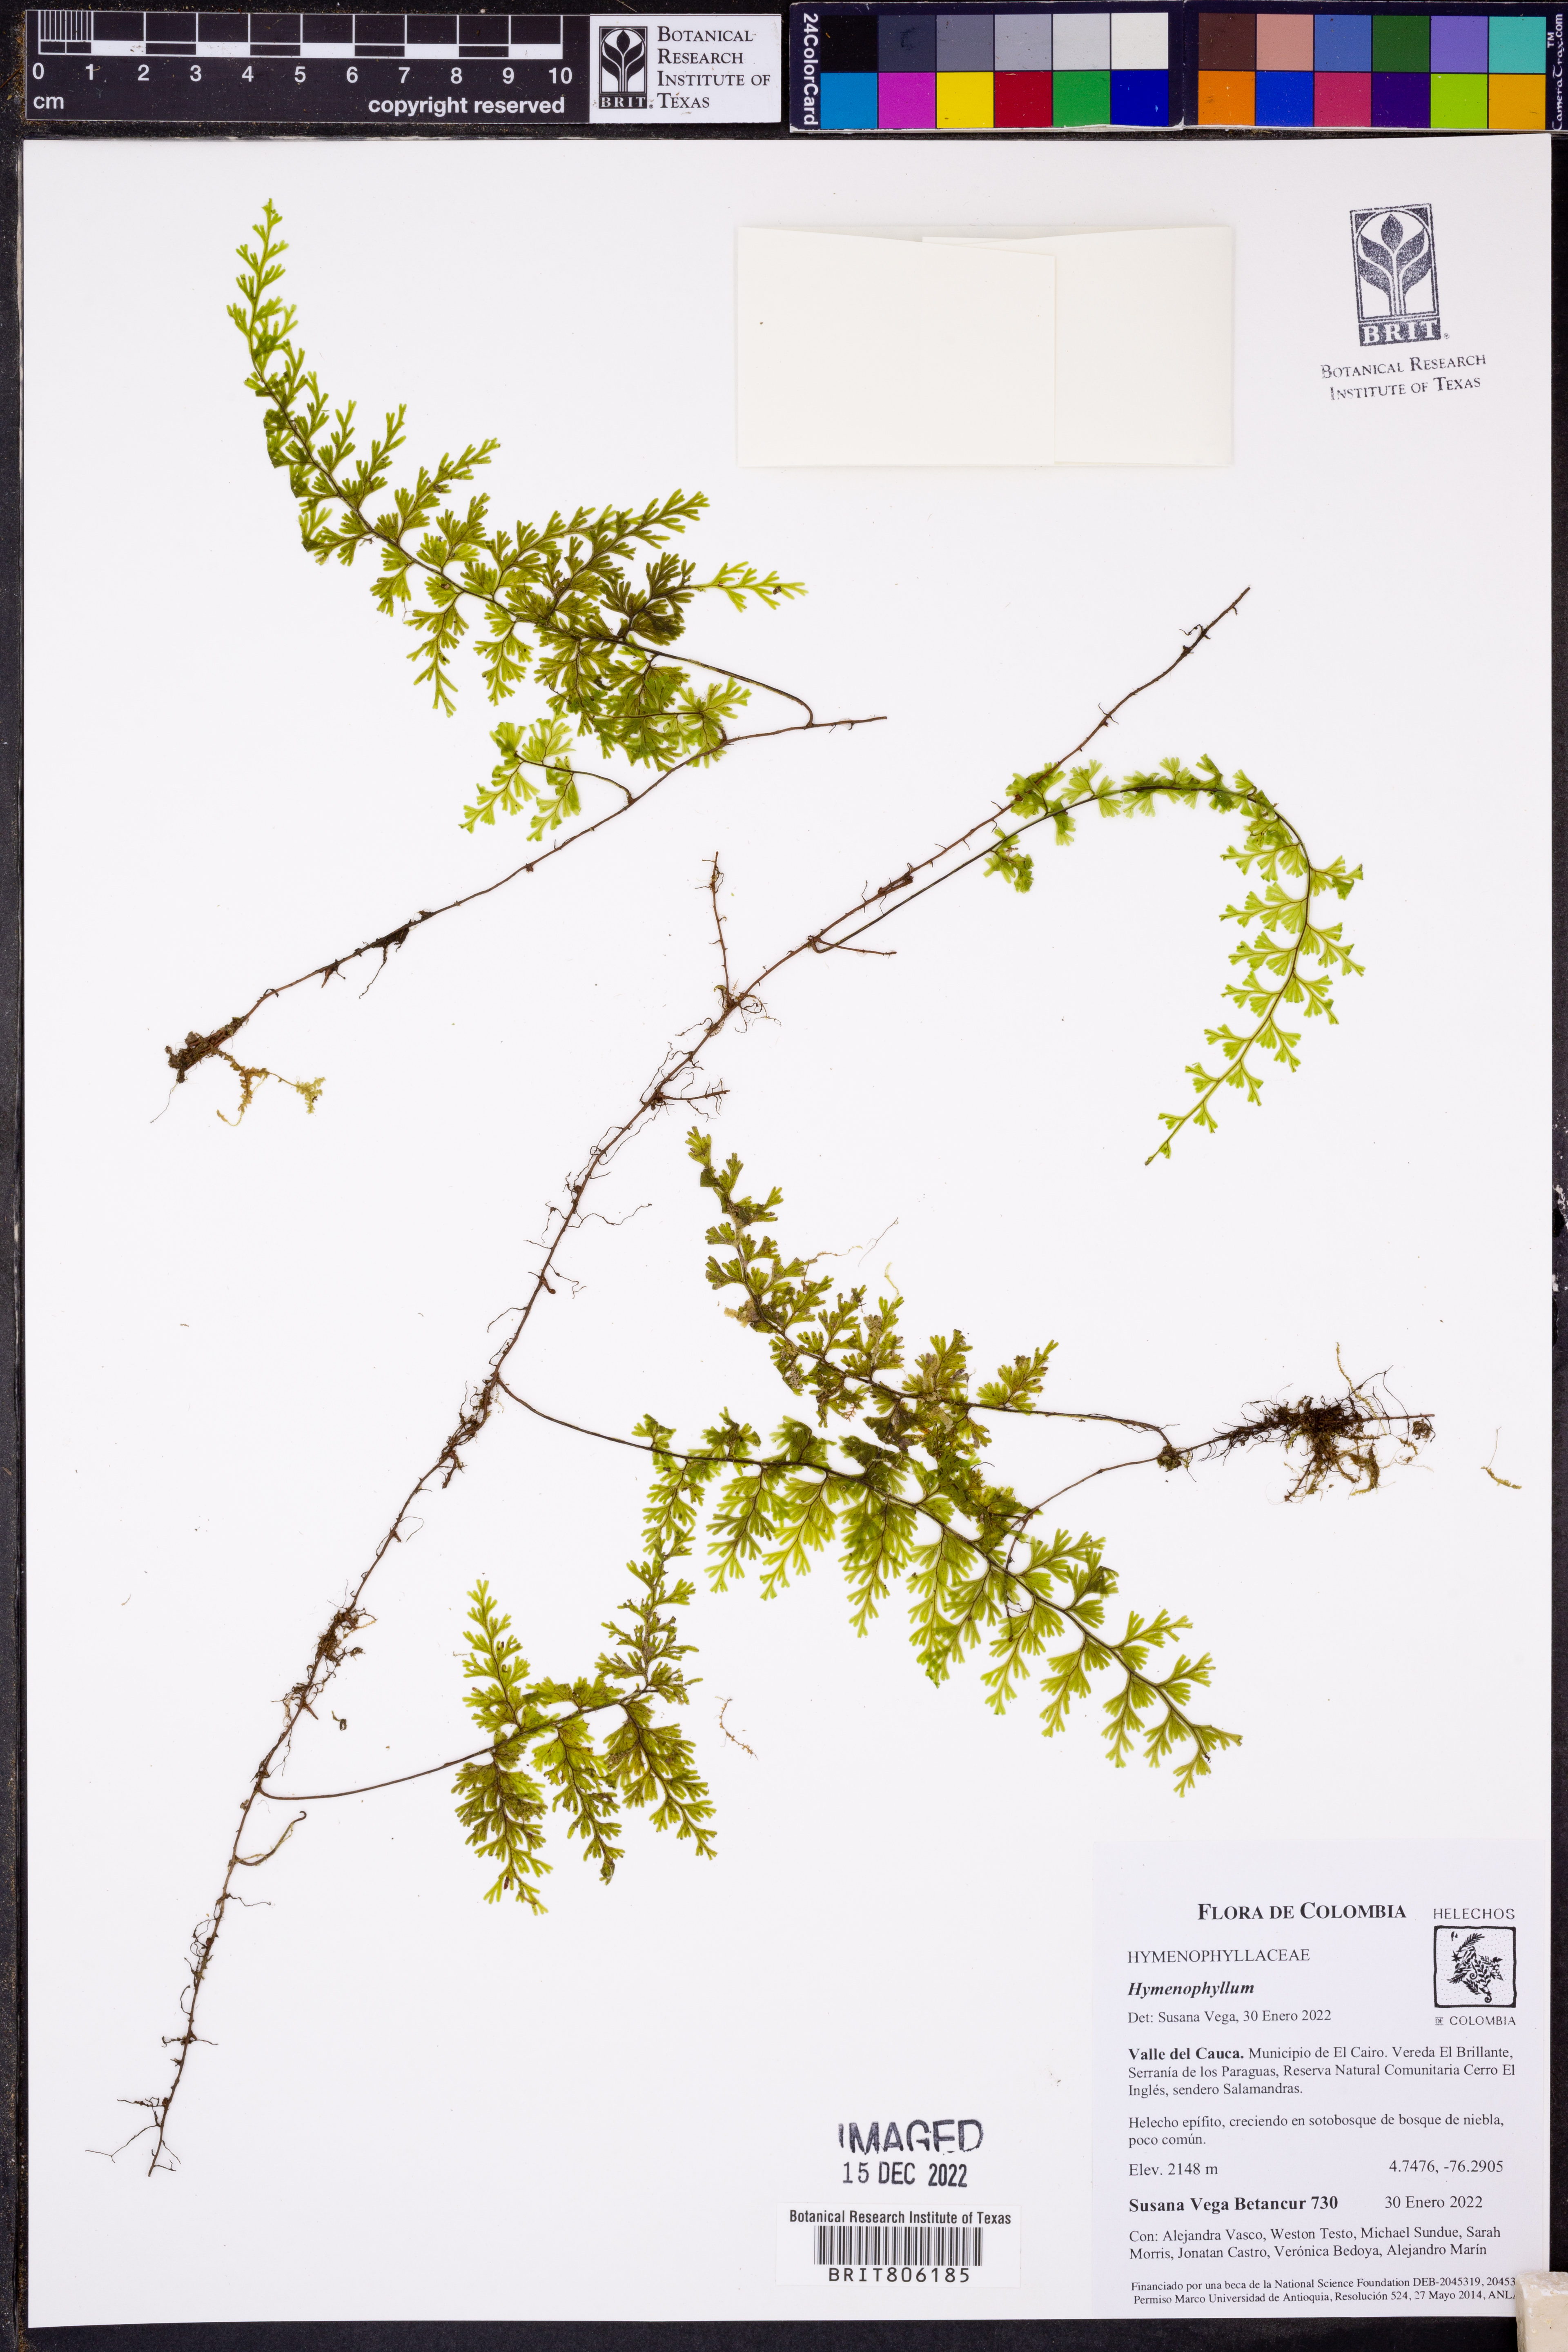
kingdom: Plantae
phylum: Tracheophyta
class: Polypodiopsida
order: Hymenophyllales
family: Hymenophyllaceae
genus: Hymenophyllum
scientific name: Hymenophyllum myriocarpum
